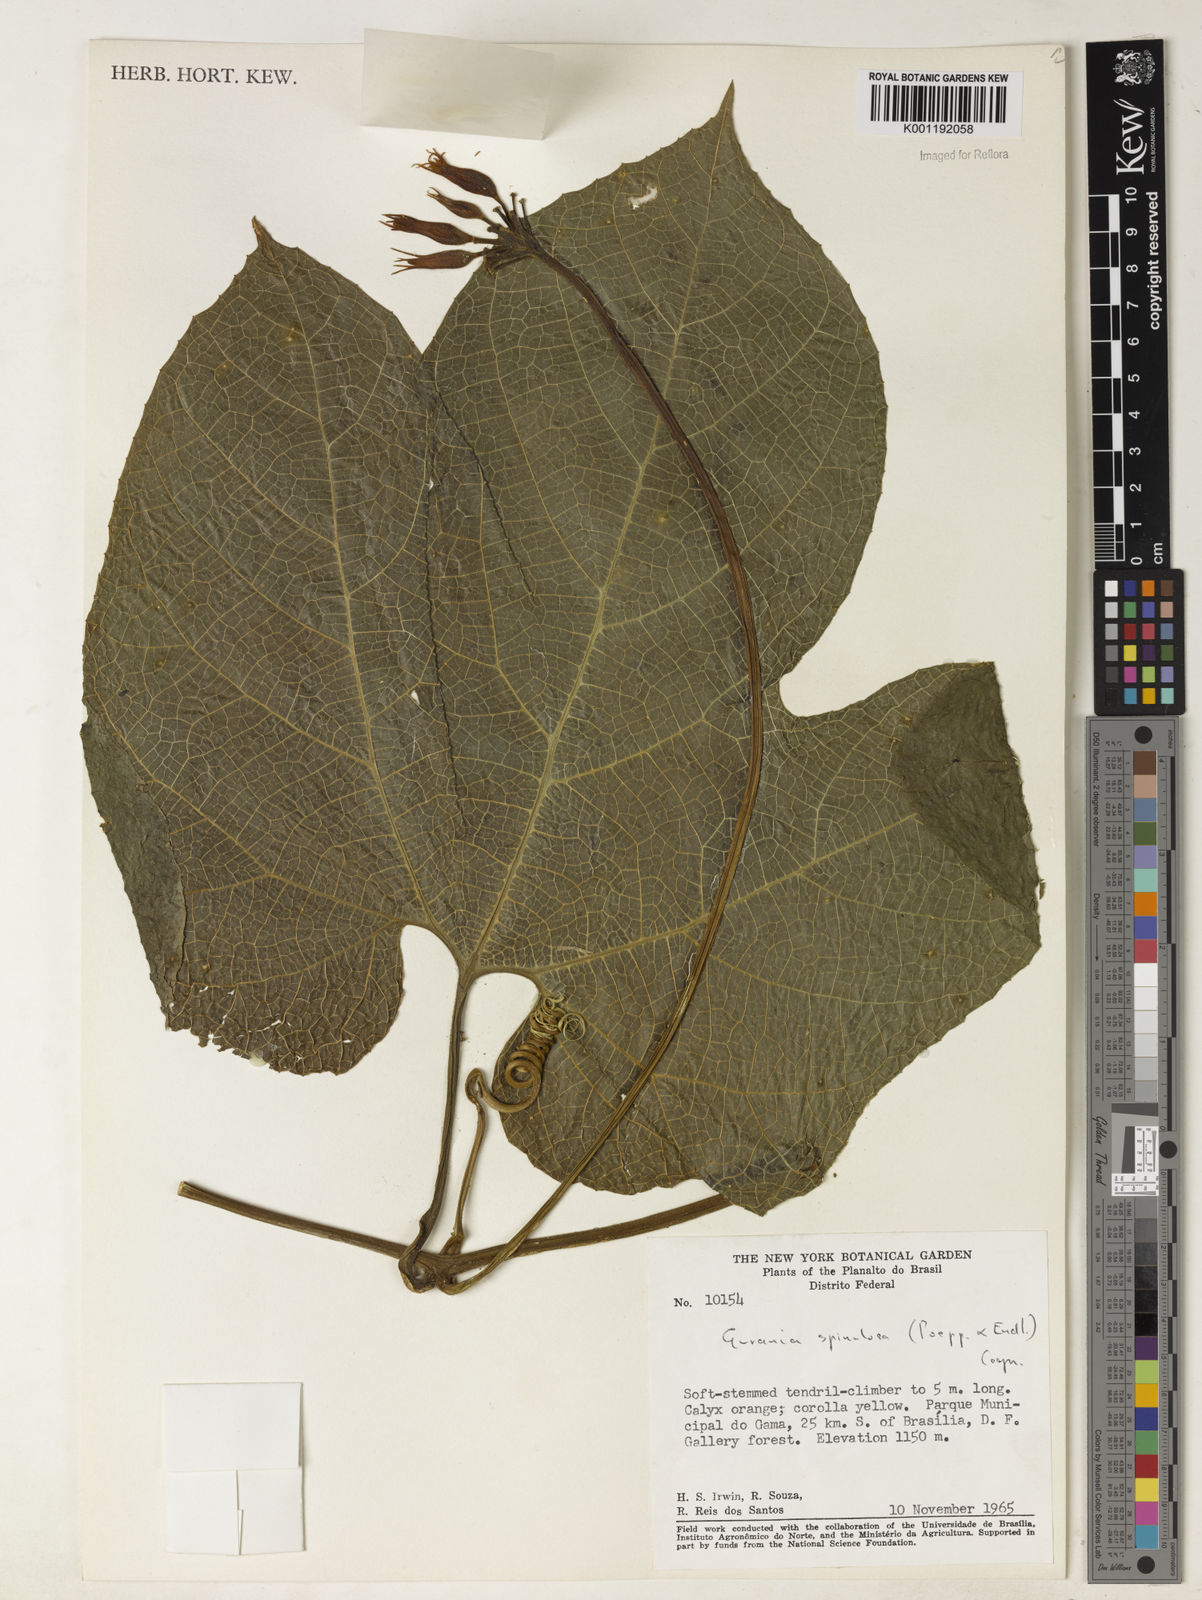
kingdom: Plantae
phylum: Tracheophyta
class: Magnoliopsida
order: Cucurbitales
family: Cucurbitaceae
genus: Gurania
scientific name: Gurania lobata
